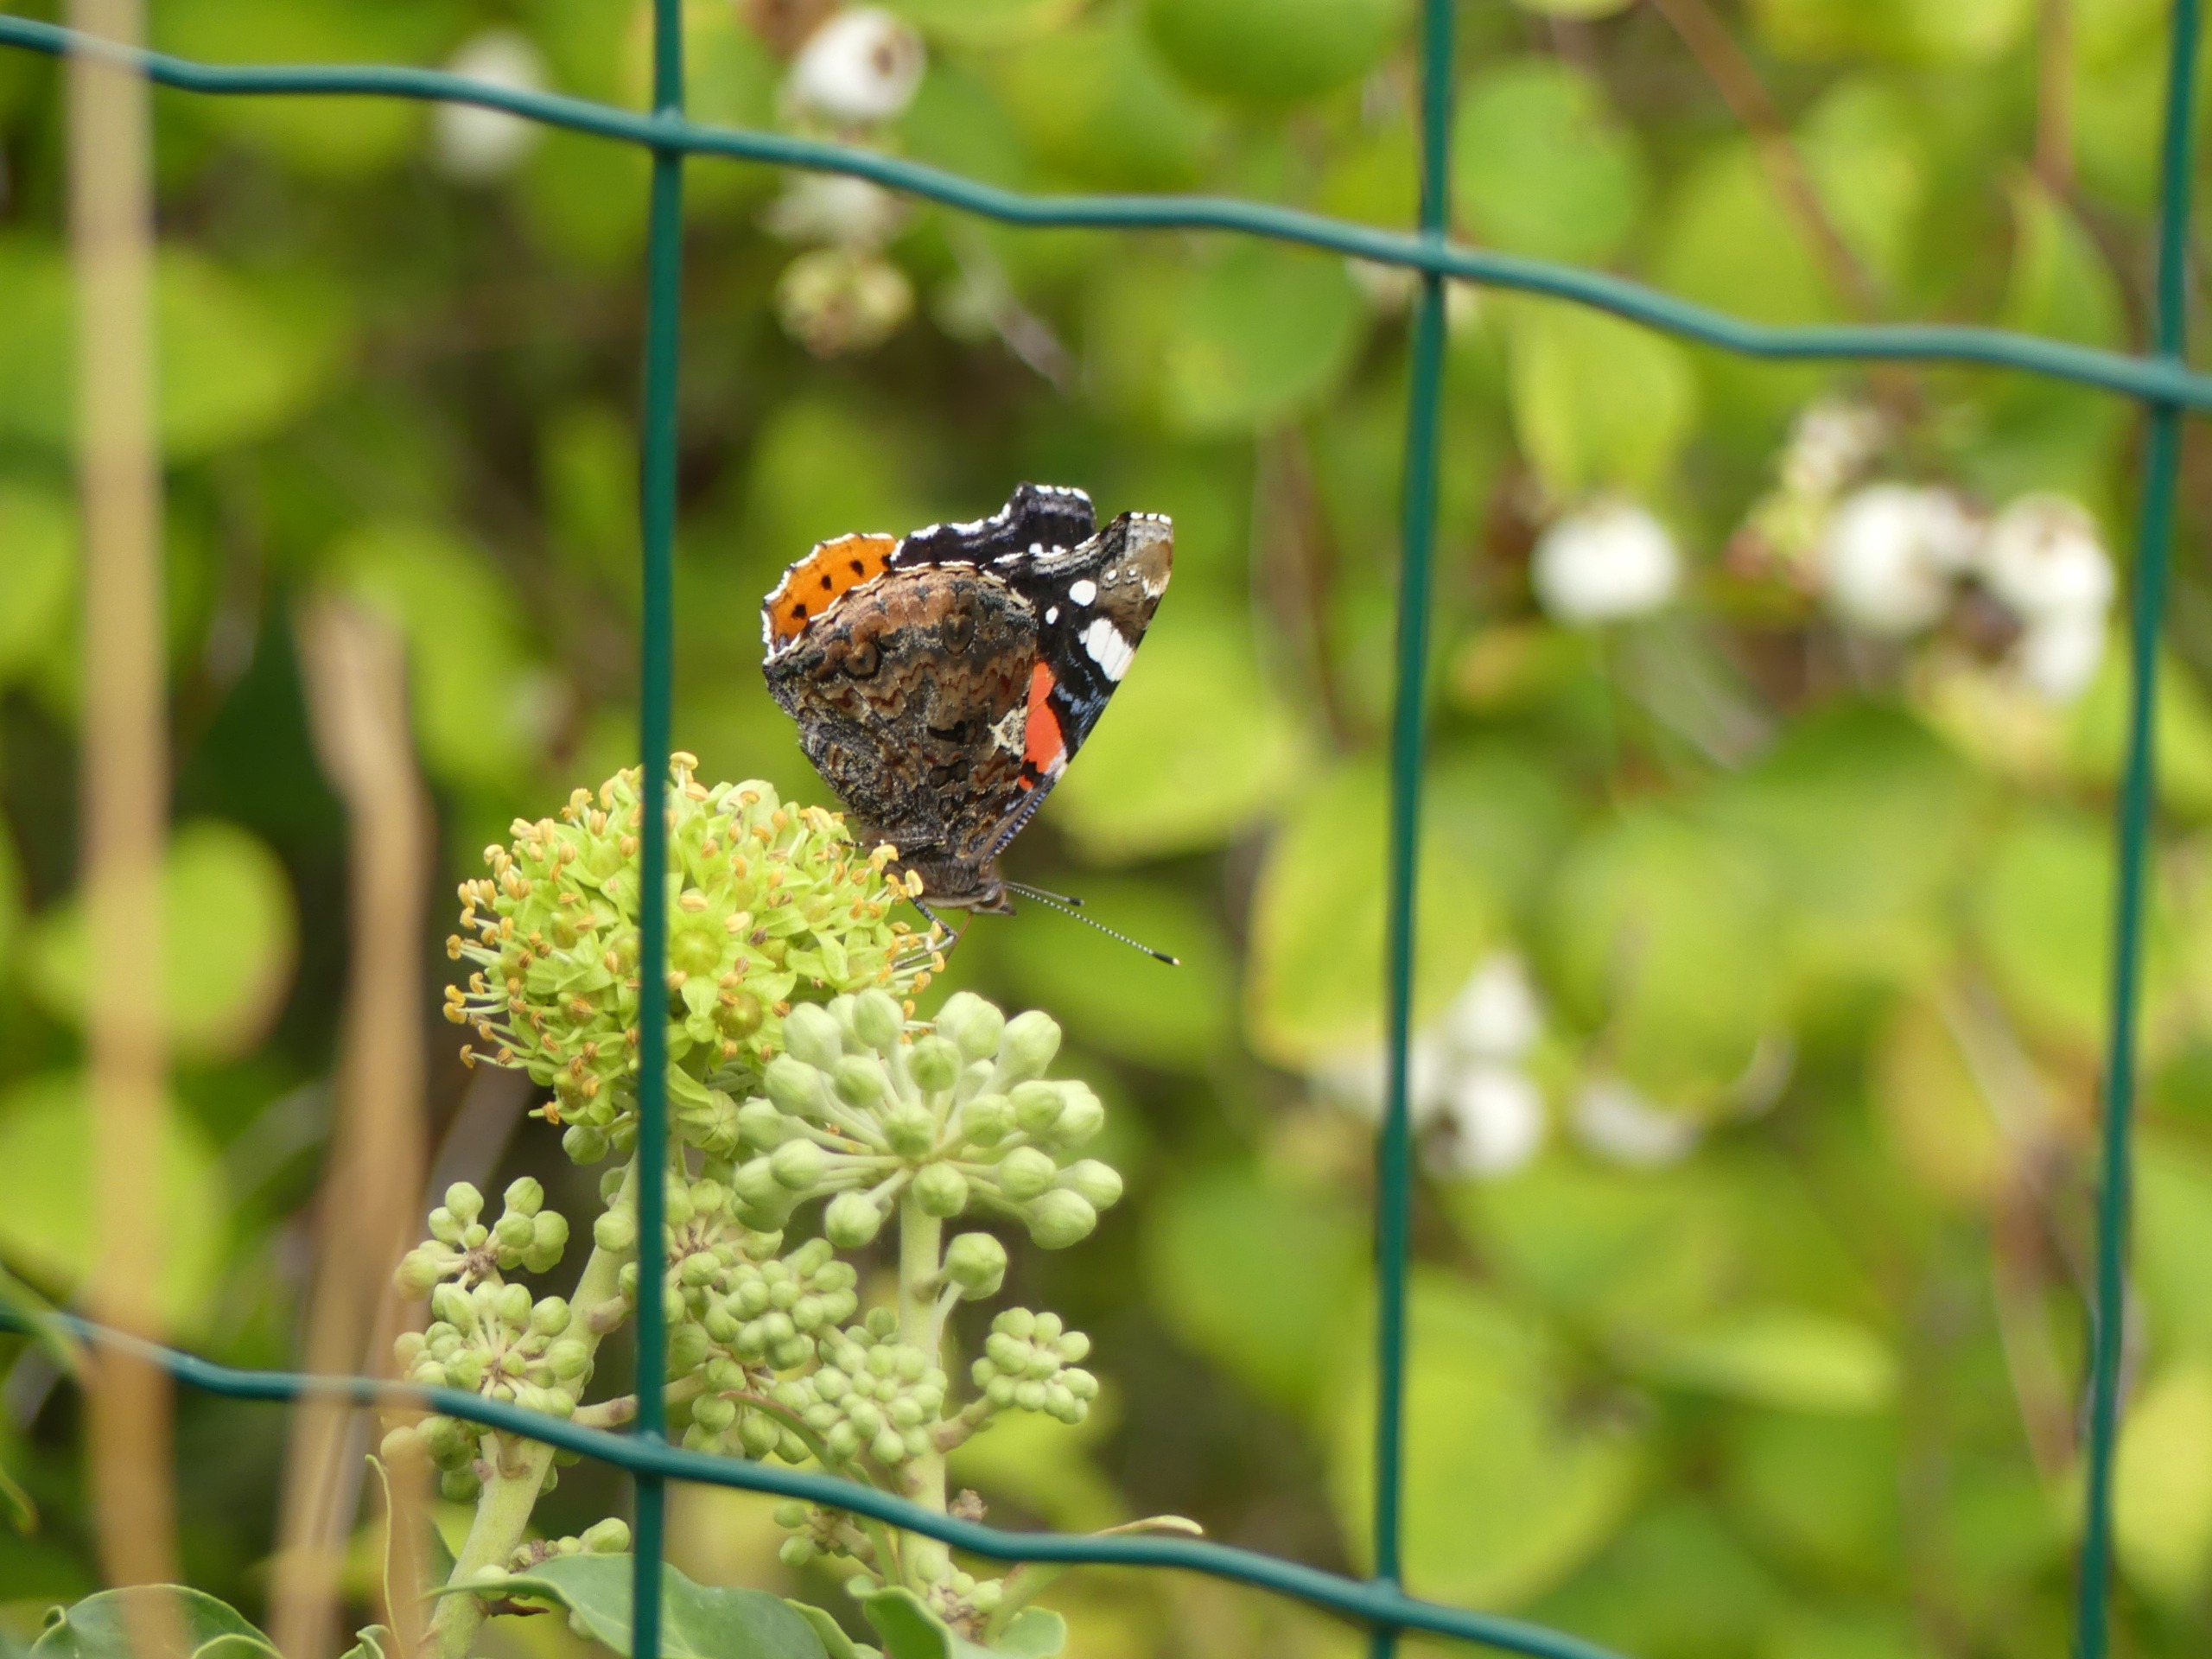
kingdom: Animalia
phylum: Arthropoda
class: Insecta
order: Lepidoptera
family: Nymphalidae
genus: Vanessa
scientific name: Vanessa atalanta
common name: Admiral
